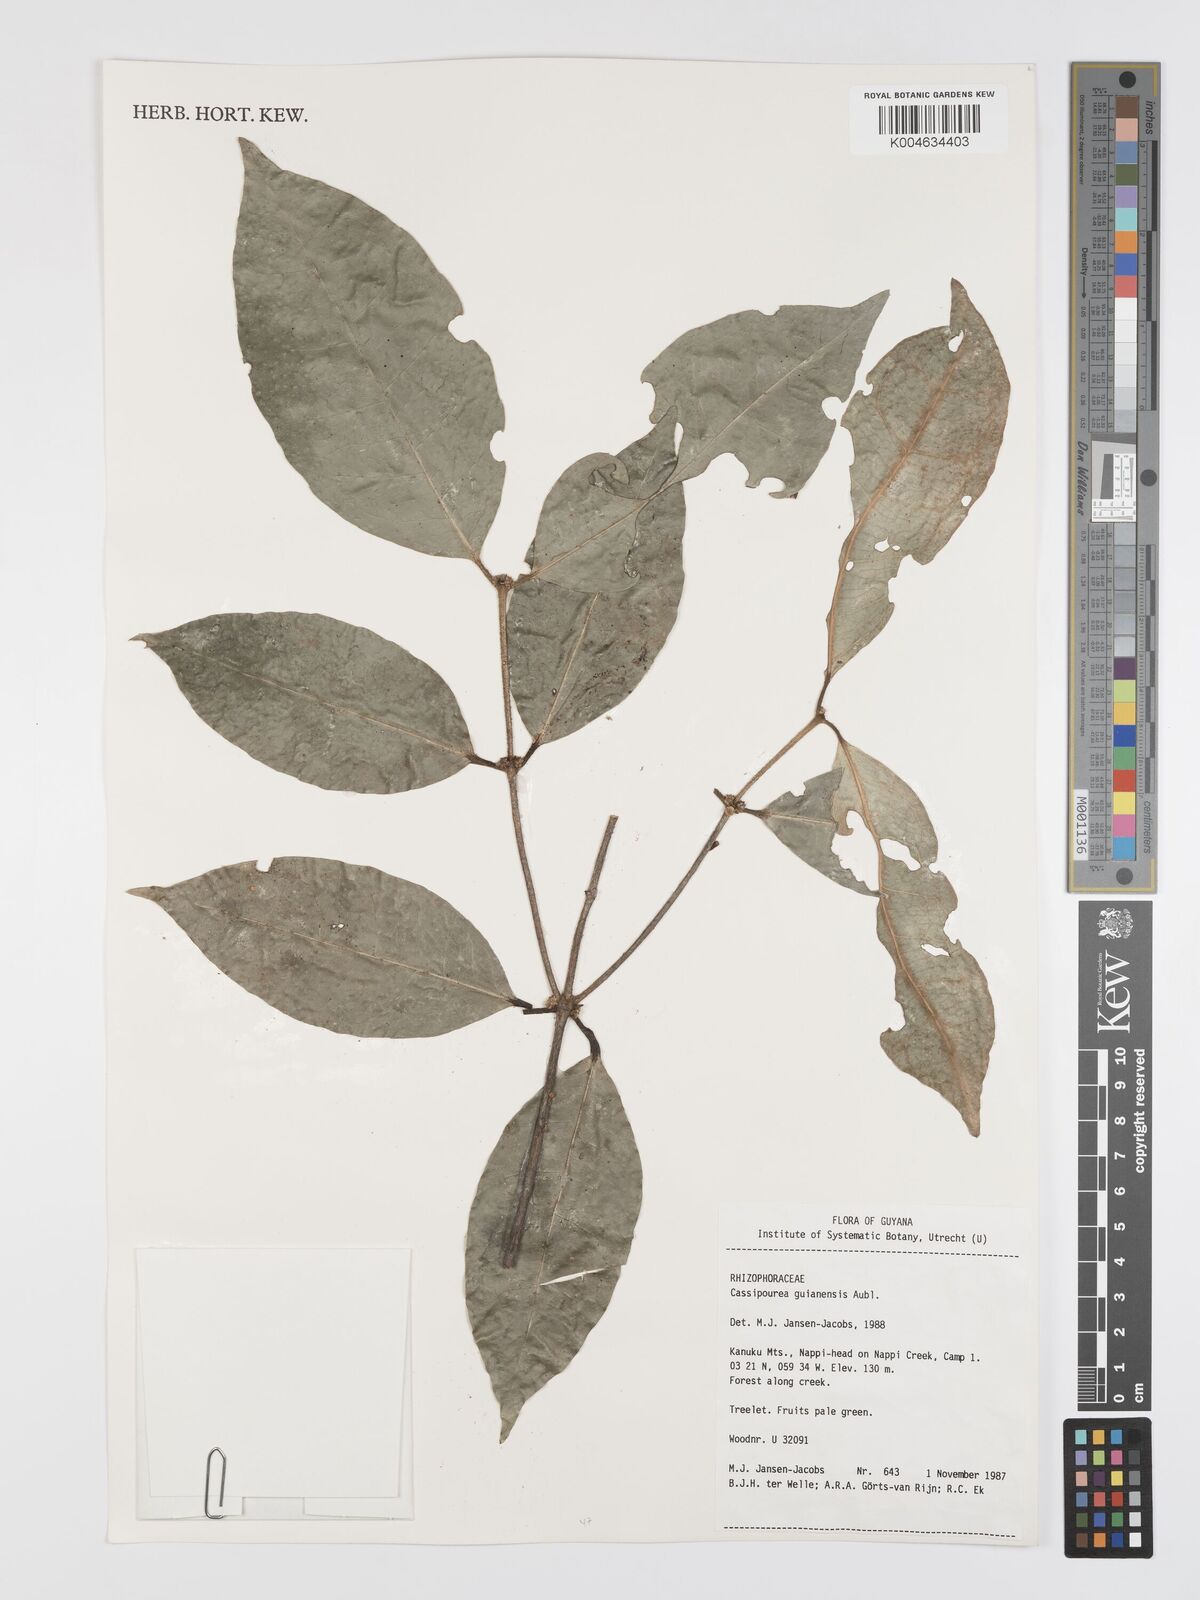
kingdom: Plantae
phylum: Tracheophyta
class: Magnoliopsida
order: Malpighiales
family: Rhizophoraceae
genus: Cassipourea
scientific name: Cassipourea guianensis
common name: Bastard waterwood
